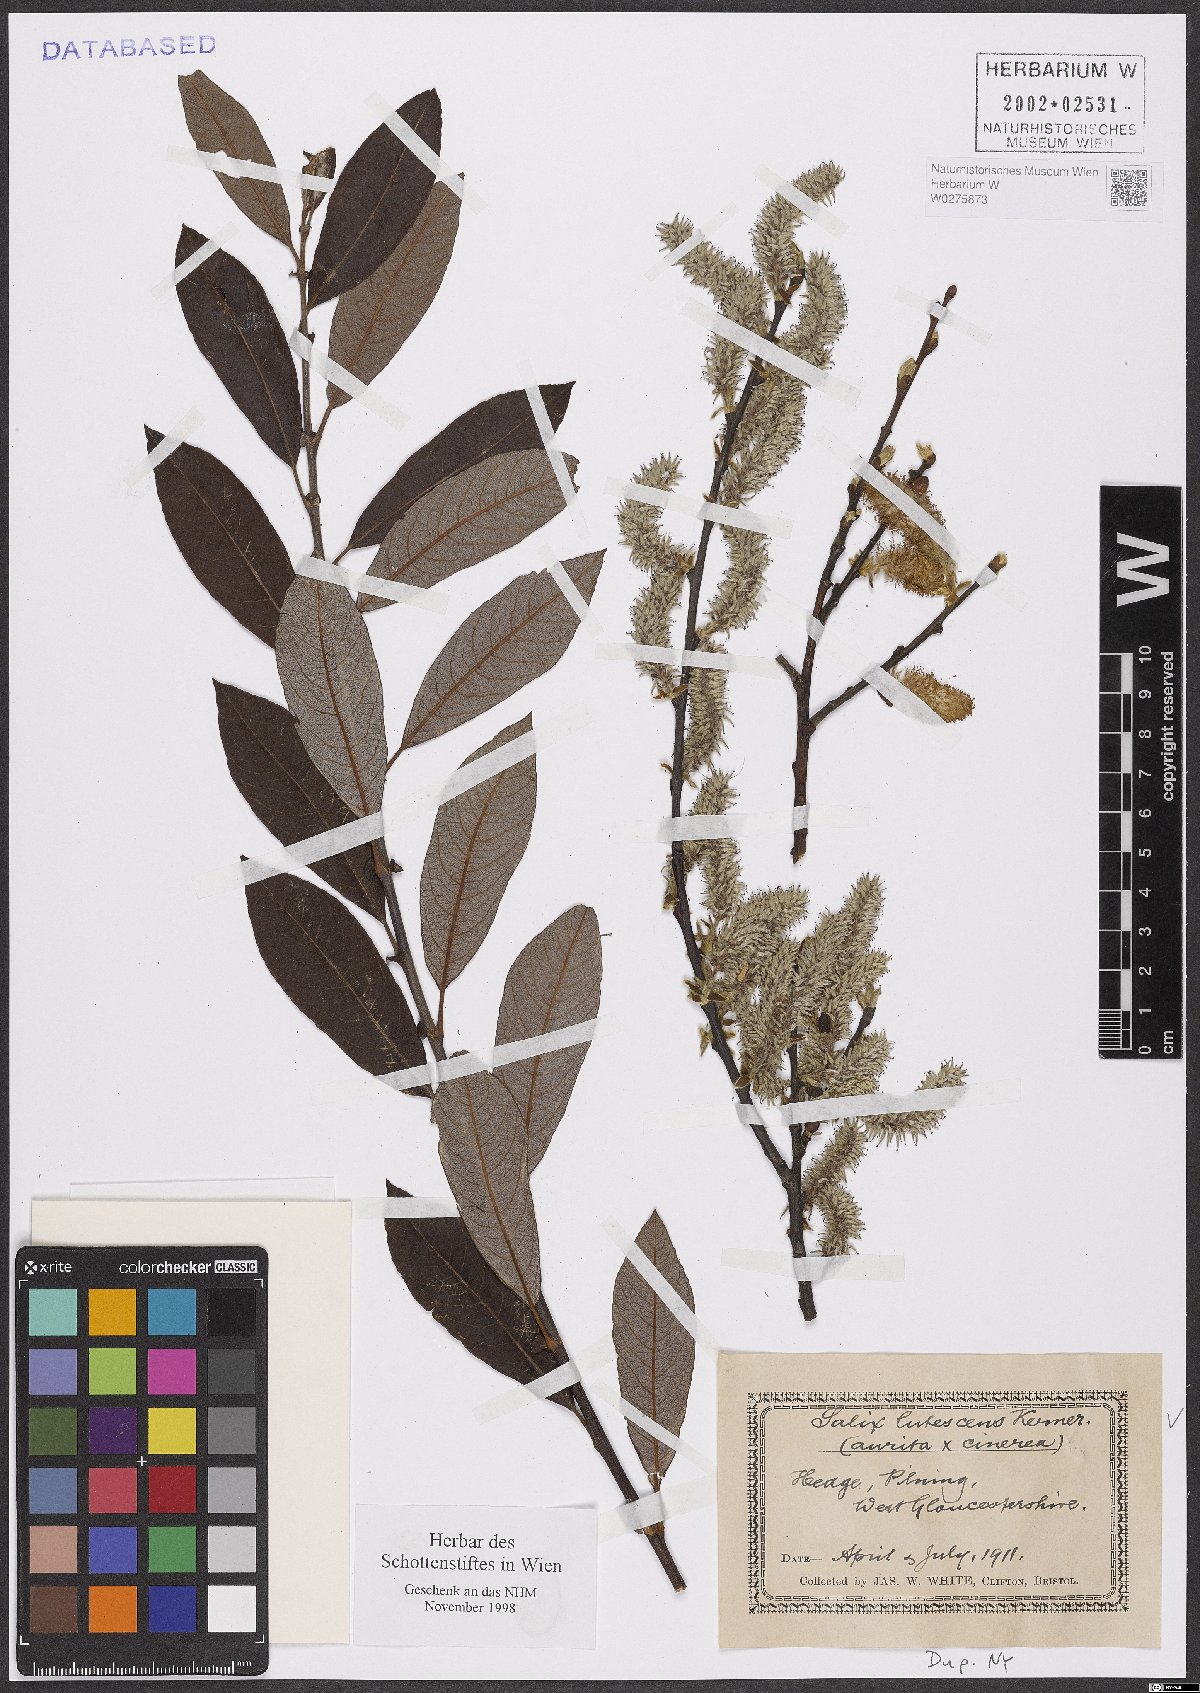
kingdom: Plantae
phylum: Tracheophyta
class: Magnoliopsida
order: Malpighiales
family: Salicaceae
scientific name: Salicaceae
